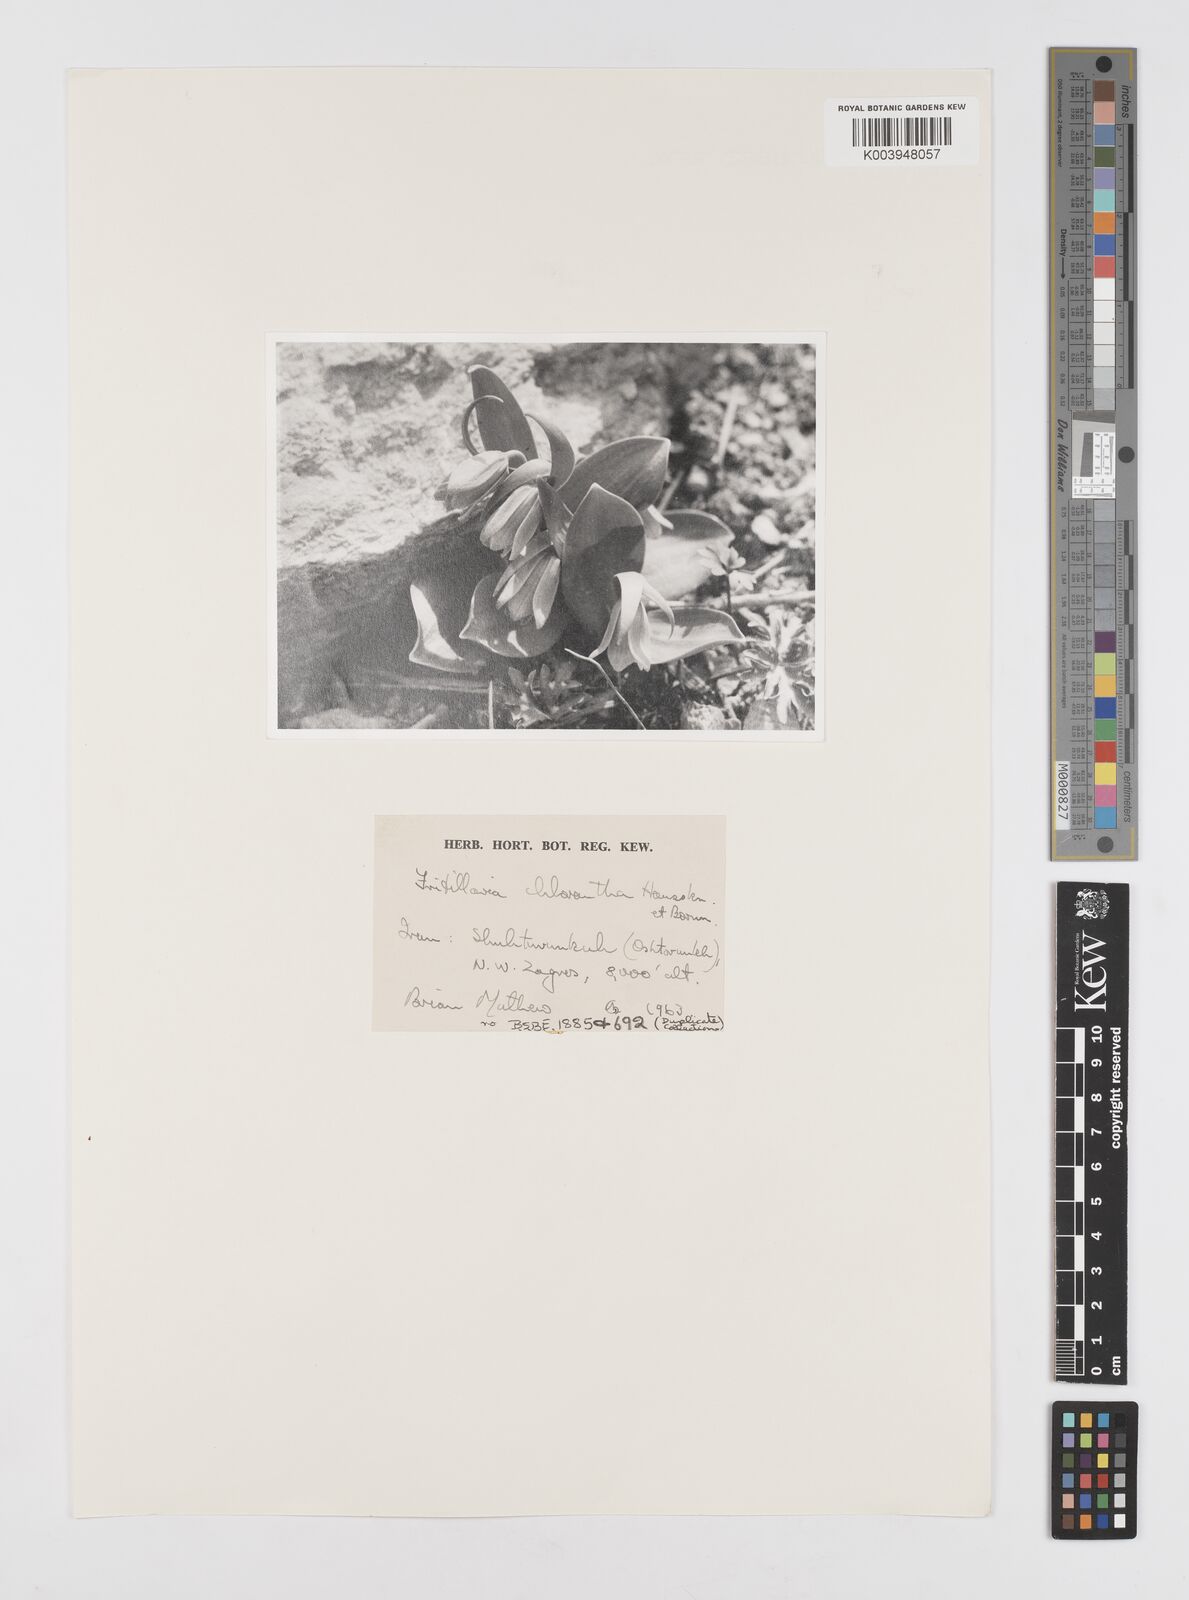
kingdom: Plantae
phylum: Tracheophyta
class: Liliopsida
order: Liliales
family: Liliaceae
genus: Fritillaria
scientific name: Fritillaria chlorantha
